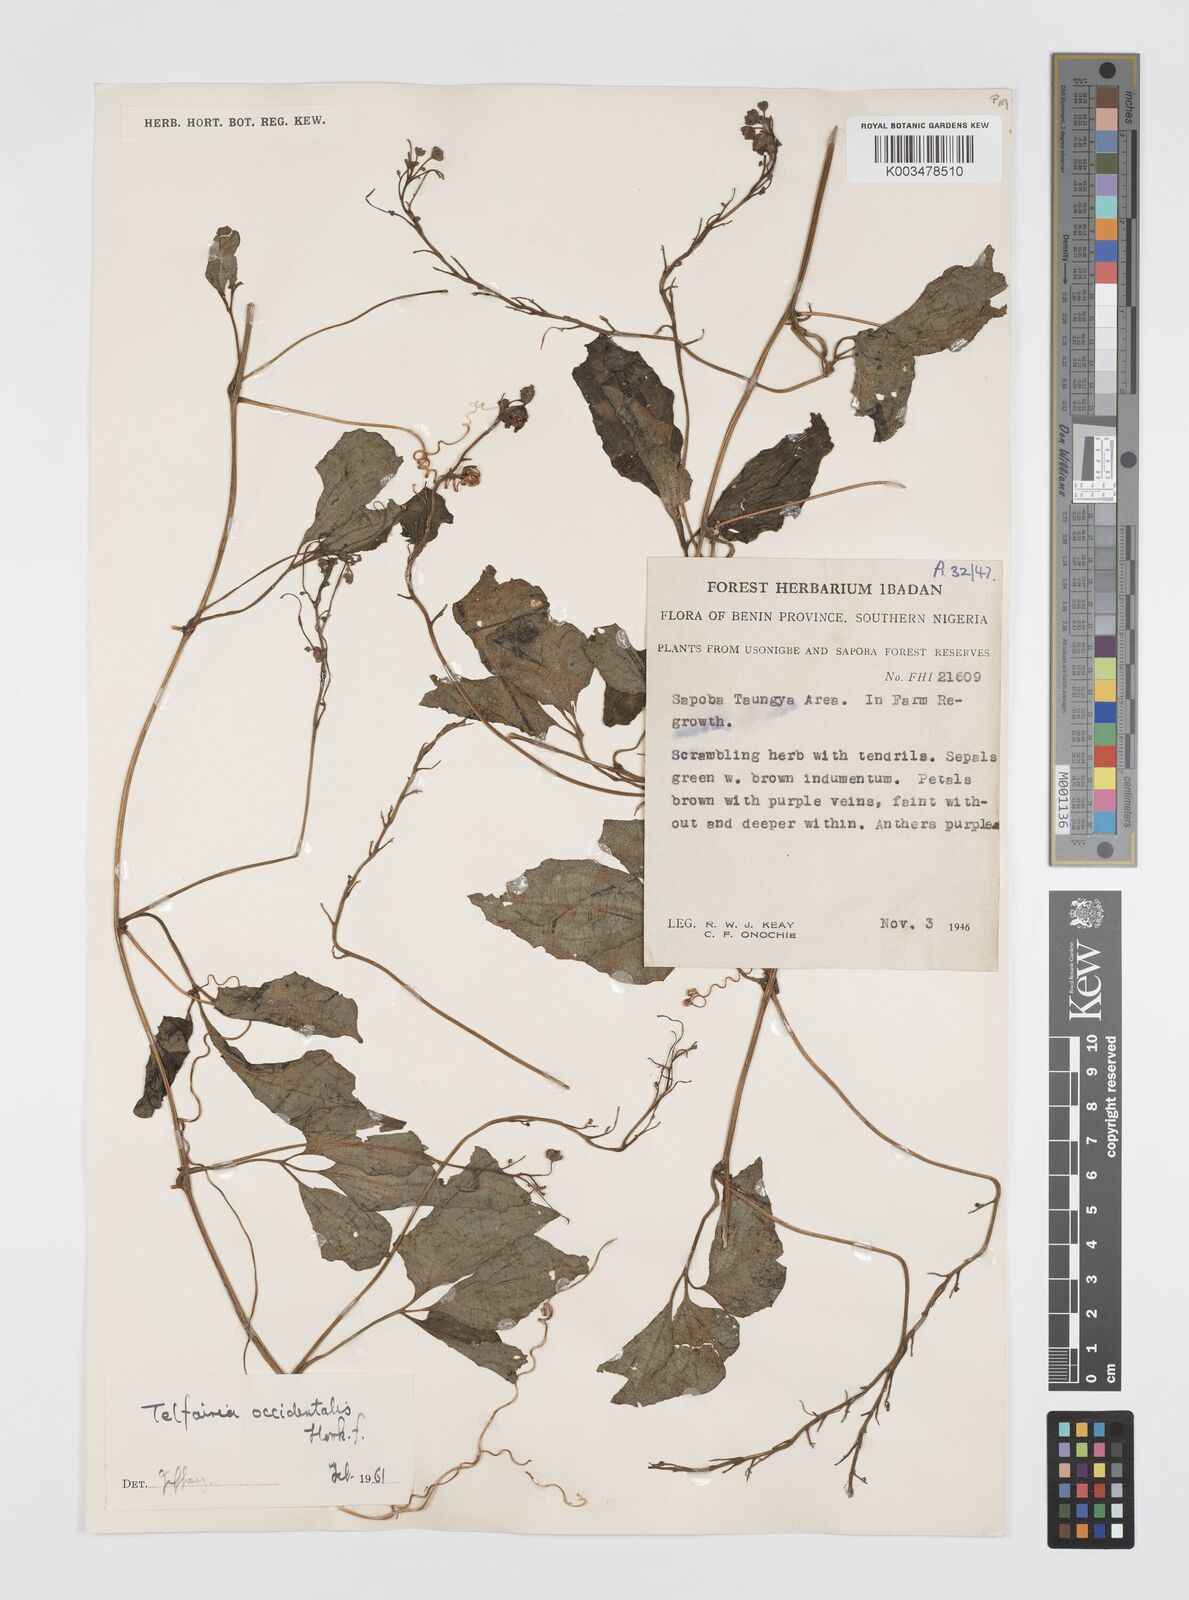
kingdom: Plantae
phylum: Tracheophyta
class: Magnoliopsida
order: Cucurbitales
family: Cucurbitaceae
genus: Telfairia
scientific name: Telfairia occidentalis
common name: Oysternut
